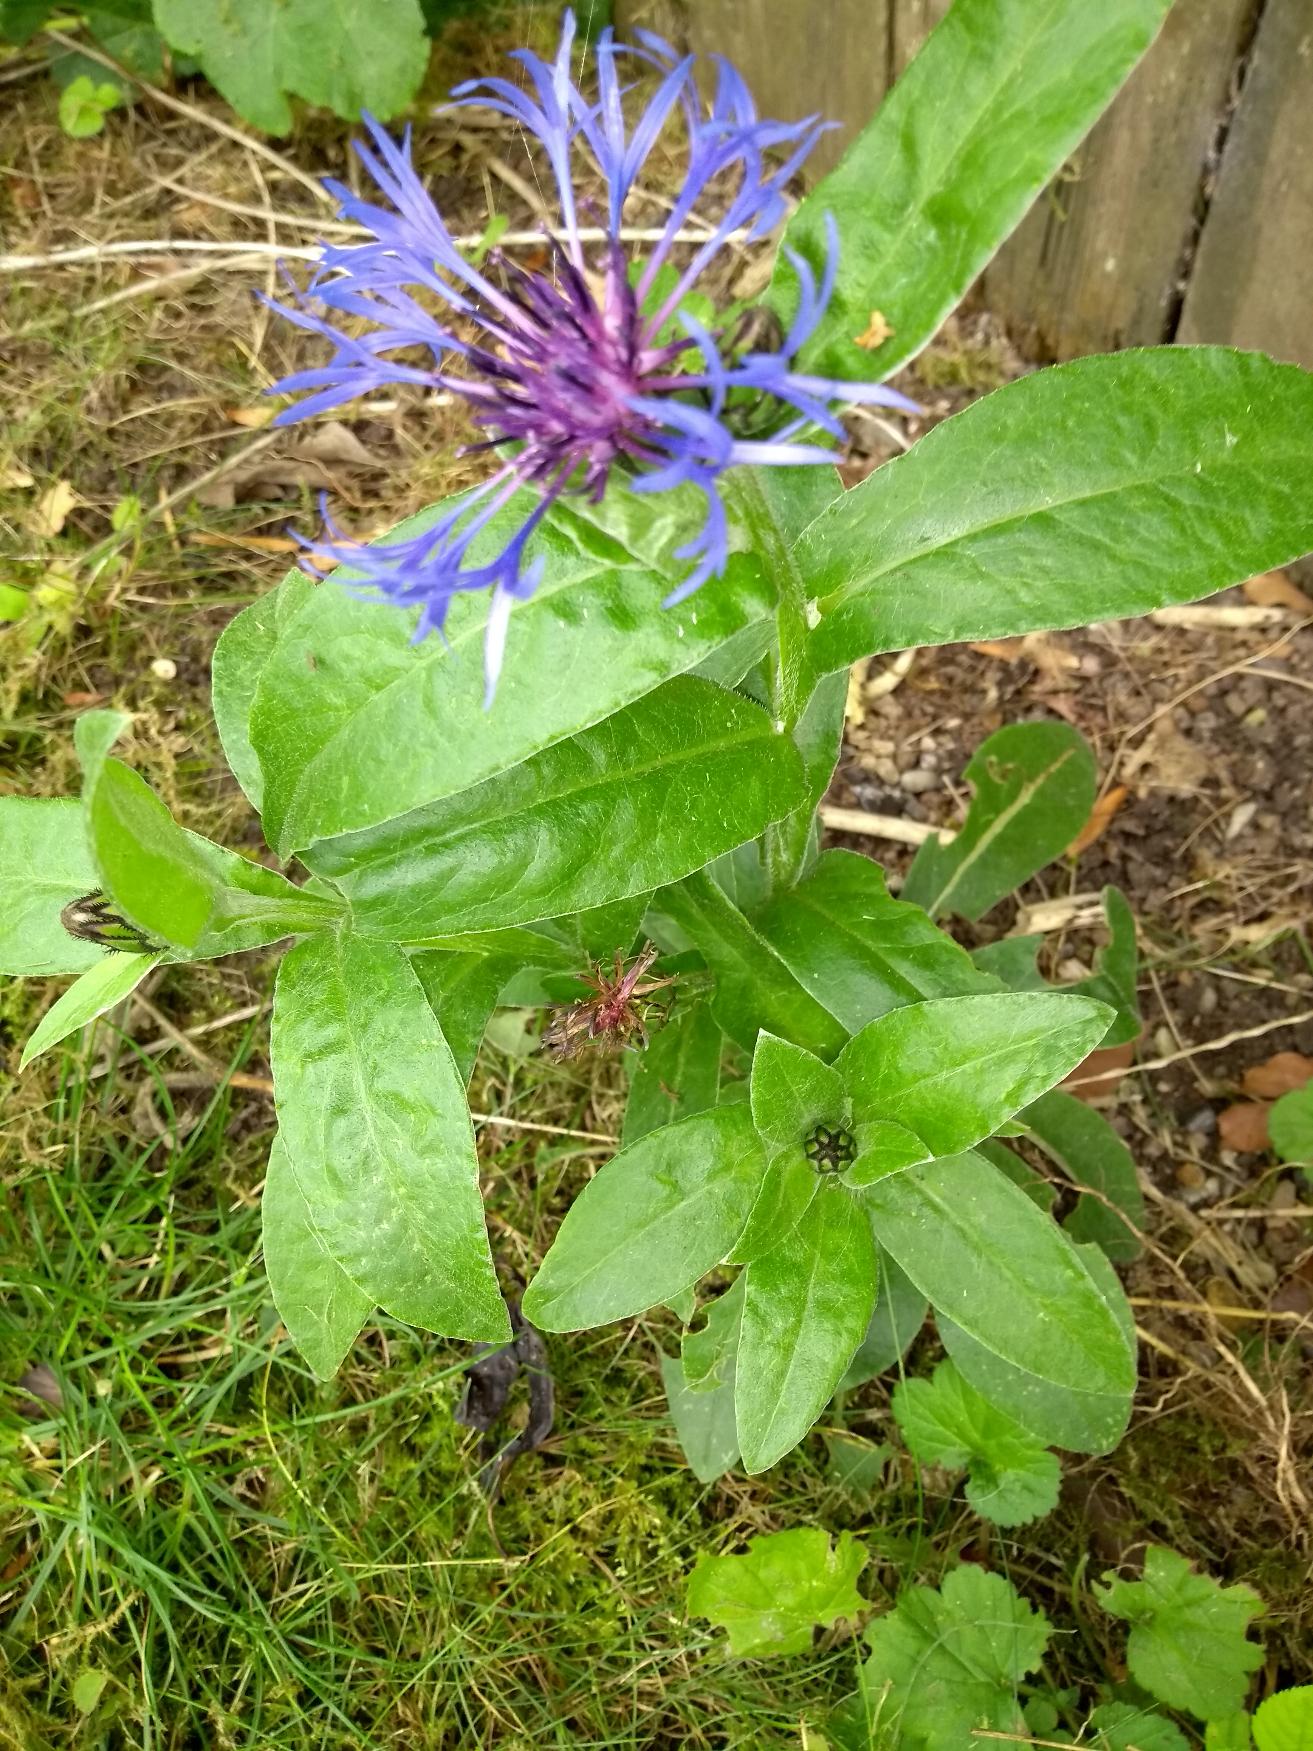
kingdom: Plantae
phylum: Tracheophyta
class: Magnoliopsida
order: Asterales
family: Asteraceae
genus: Centaurea
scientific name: Centaurea montana
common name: Bjerg-knopurt
